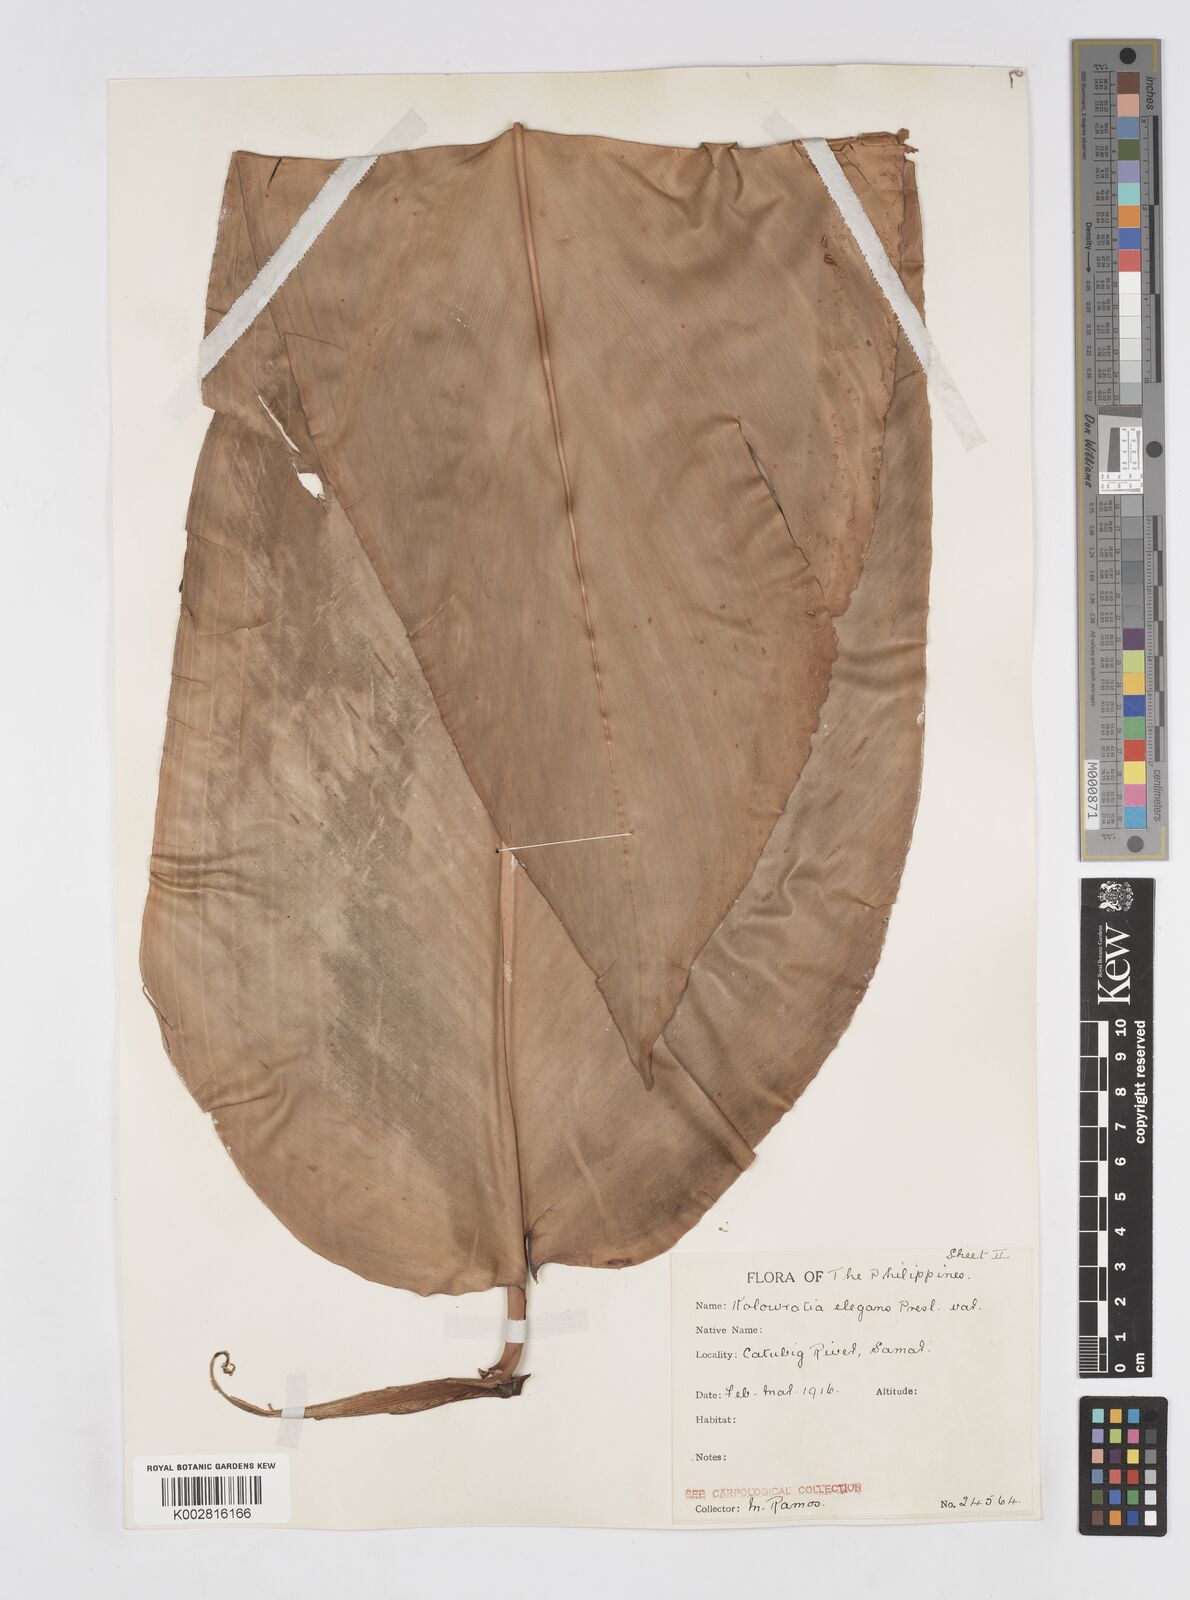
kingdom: Plantae
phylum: Tracheophyta
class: Liliopsida
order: Zingiberales
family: Zingiberaceae
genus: Alpinia
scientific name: Alpinia elegans
